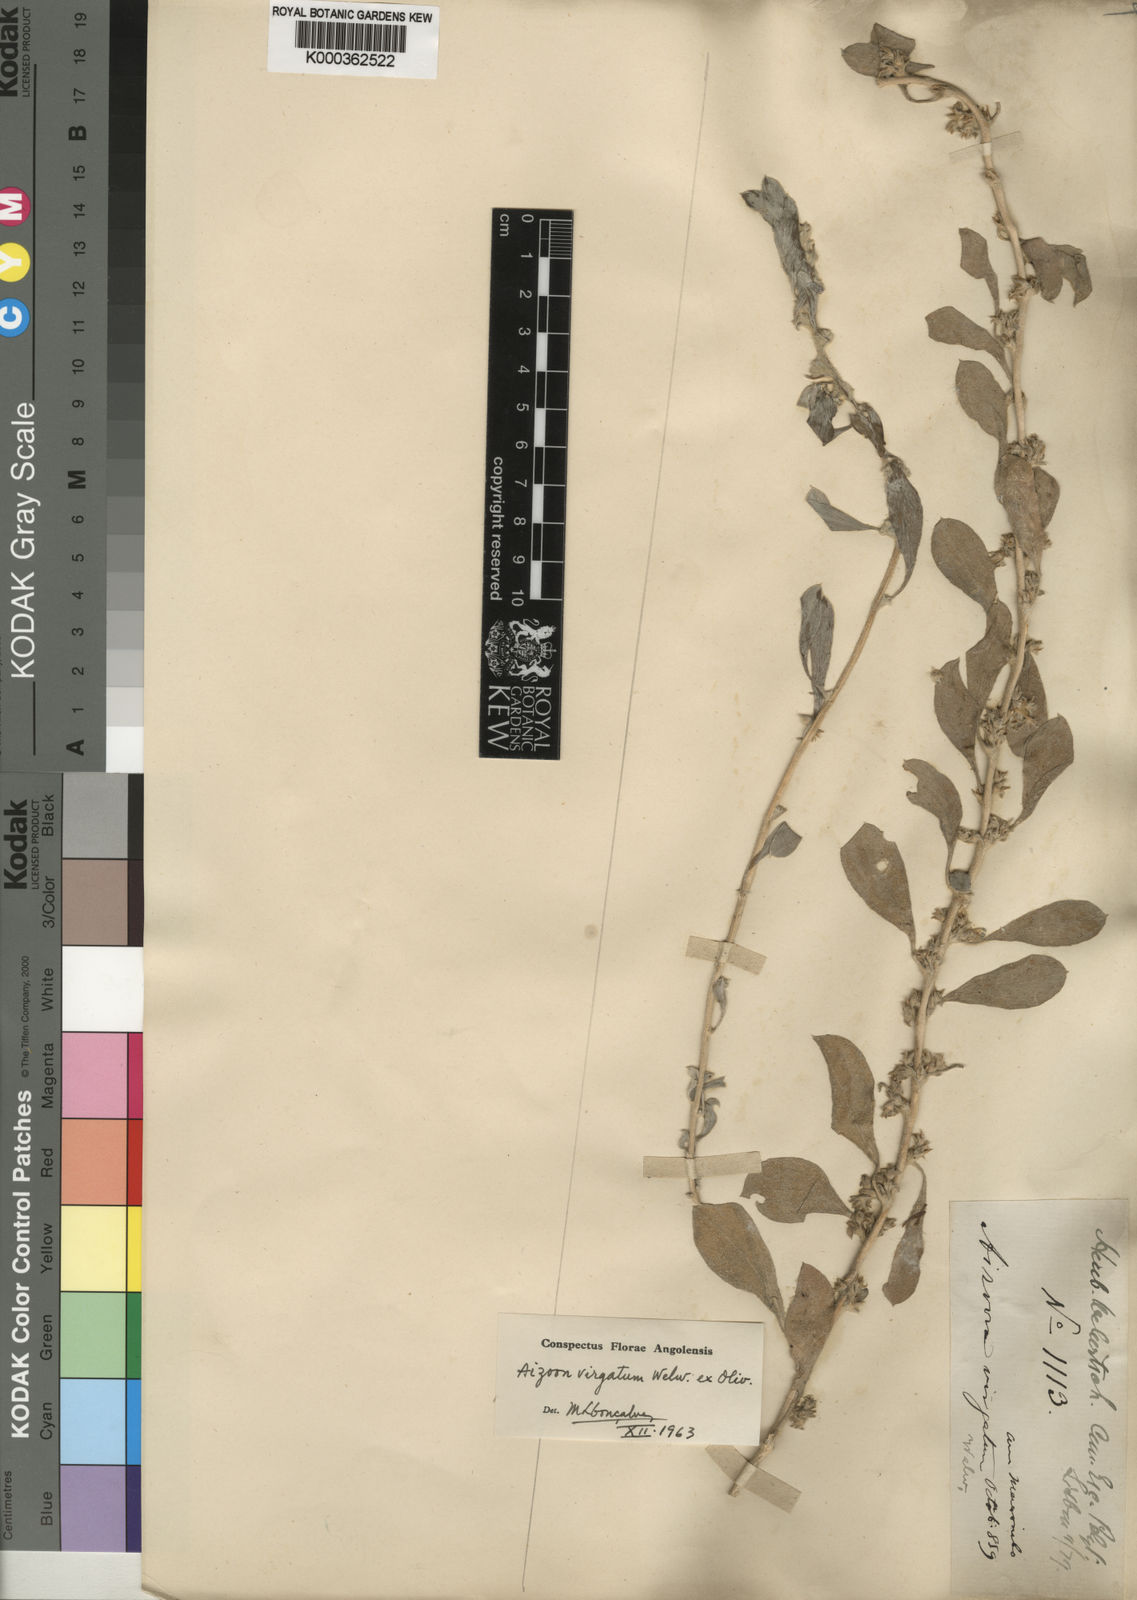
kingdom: Plantae
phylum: Tracheophyta
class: Magnoliopsida
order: Caryophyllales
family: Aizoaceae
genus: Aizoon
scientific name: Aizoon virgatum
